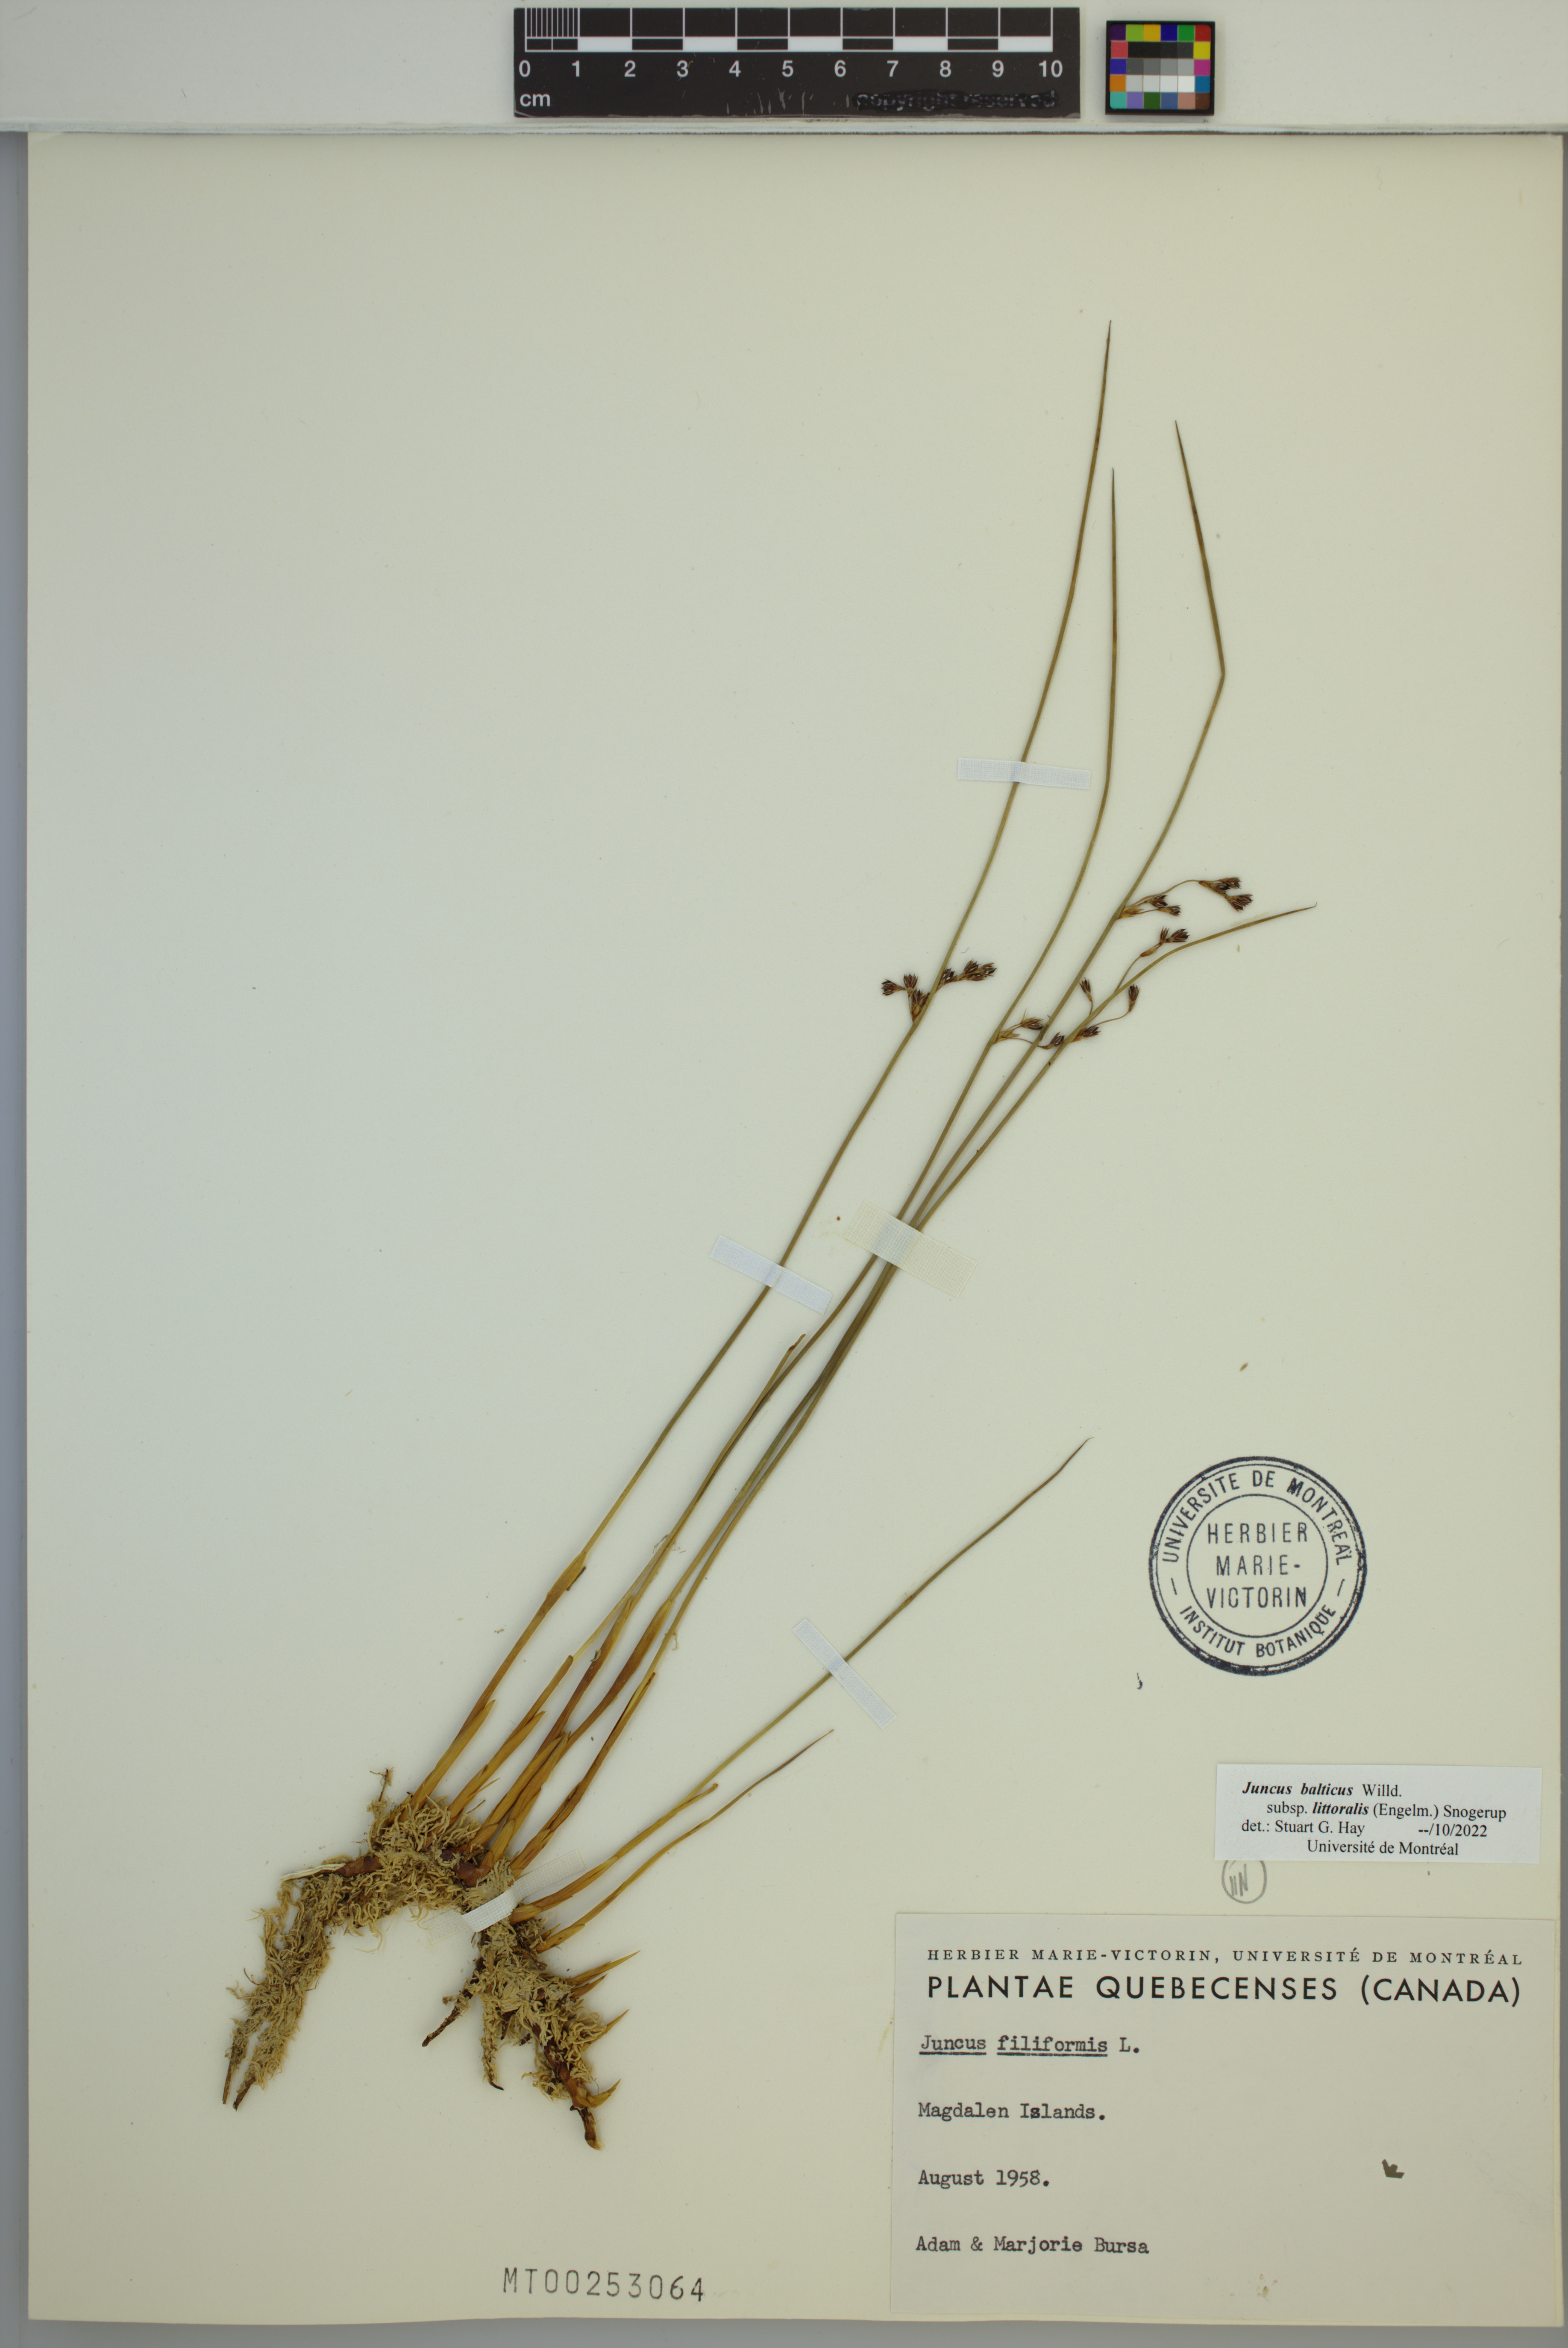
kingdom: Plantae
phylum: Tracheophyta
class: Liliopsida
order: Poales
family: Juncaceae
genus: Juncus
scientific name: Juncus balticus
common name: Baltic rush
